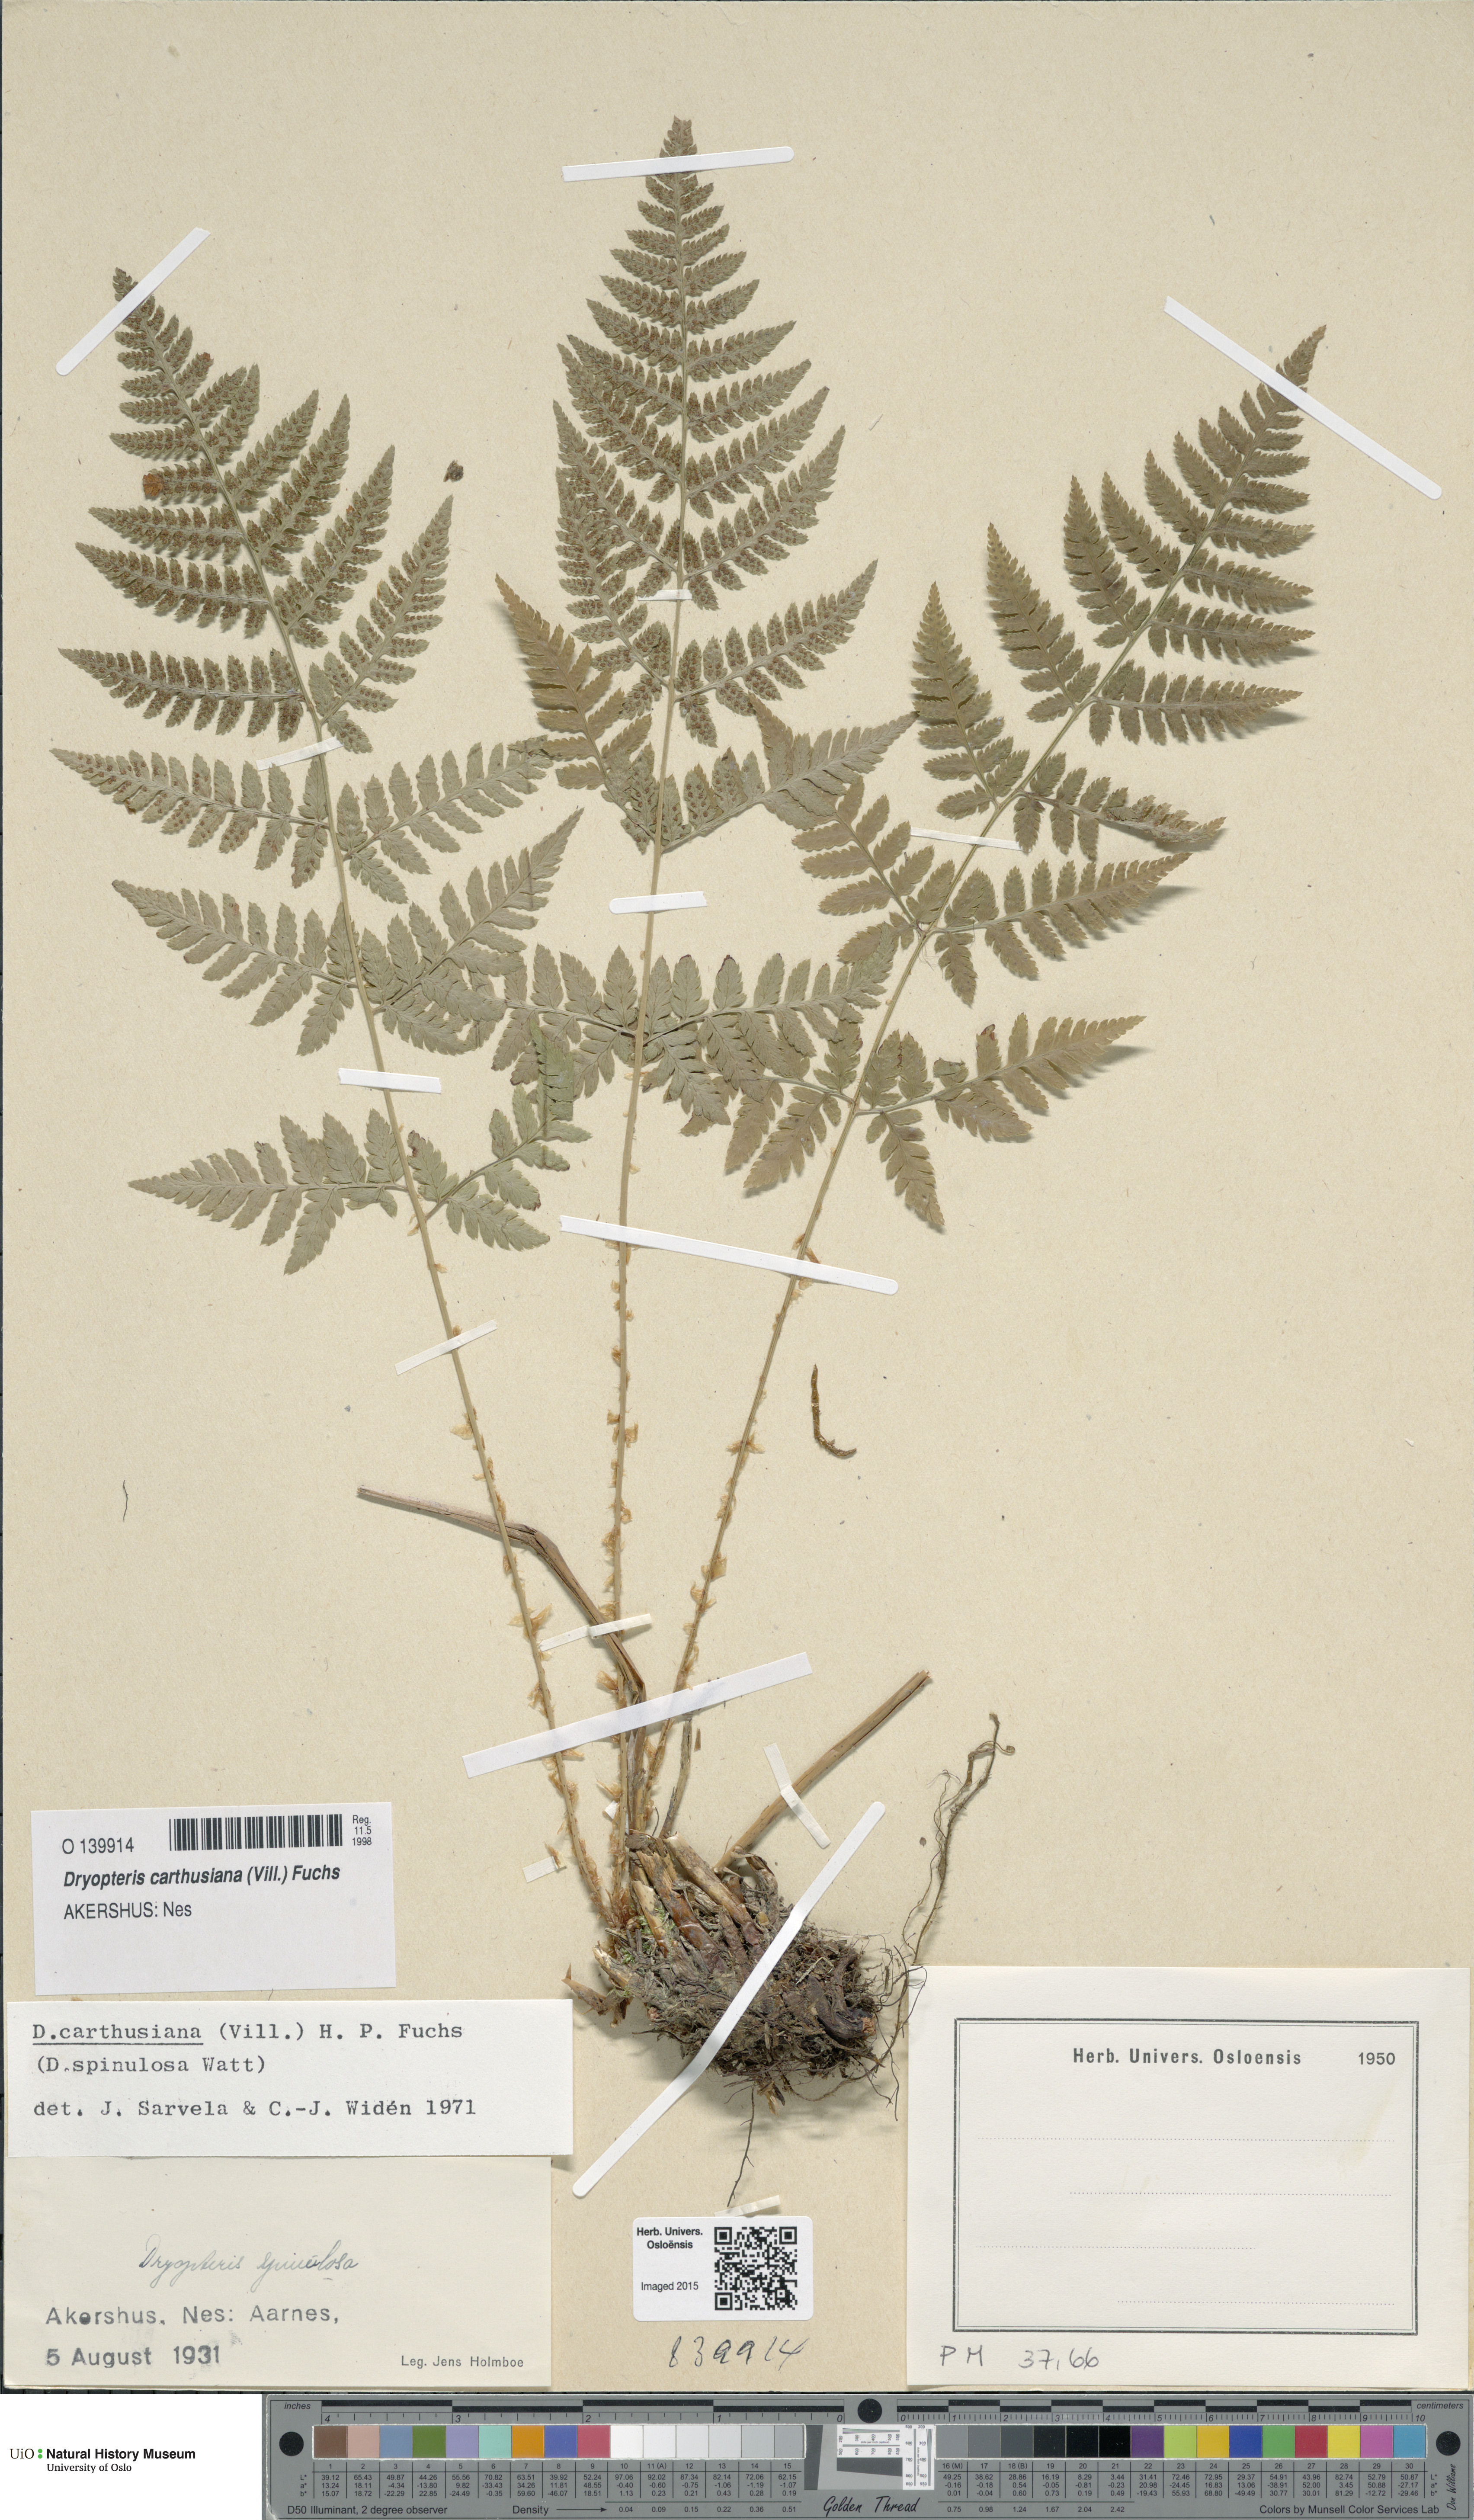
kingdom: Plantae
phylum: Tracheophyta
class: Polypodiopsida
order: Polypodiales
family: Dryopteridaceae
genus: Dryopteris
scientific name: Dryopteris carthusiana
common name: Narrow buckler-fern
